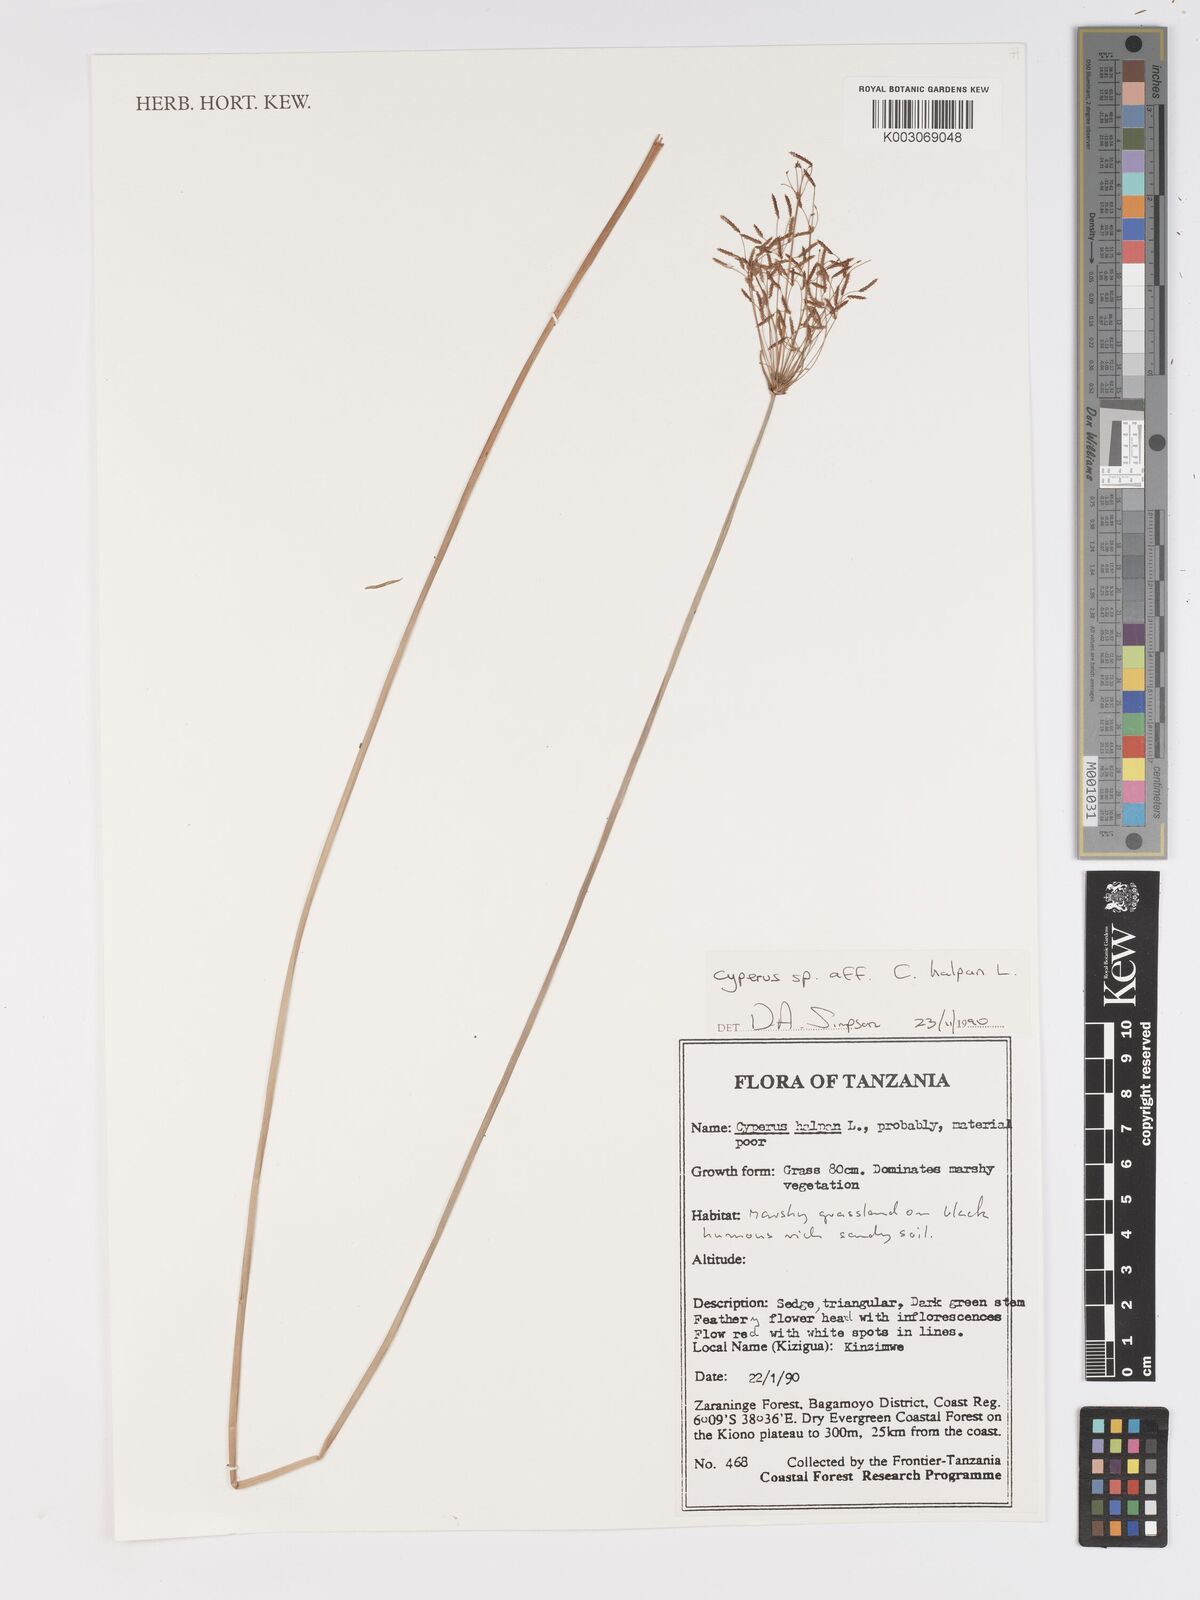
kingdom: Plantae
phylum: Tracheophyta
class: Liliopsida
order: Poales
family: Cyperaceae
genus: Cyperus
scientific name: Cyperus haspan
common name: Haspan flatsedge
